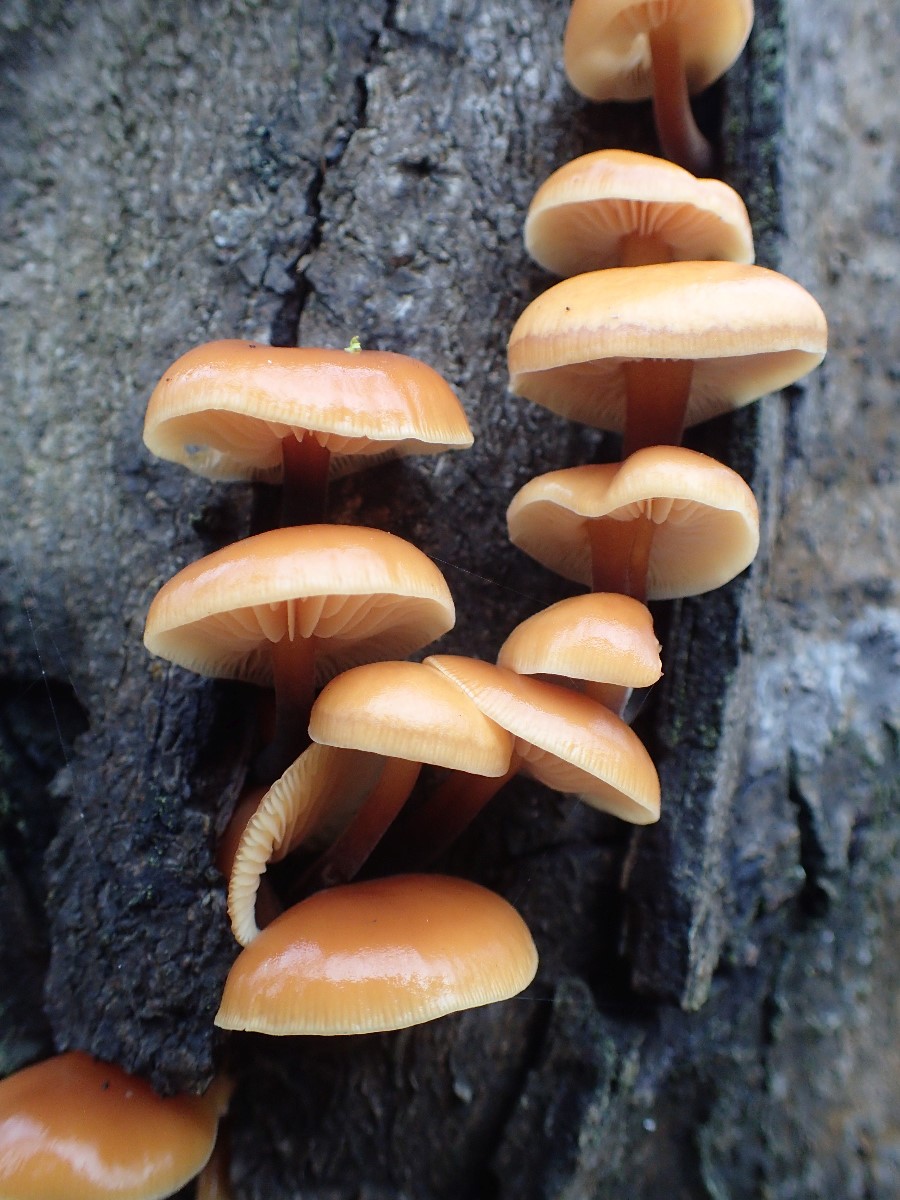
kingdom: Fungi
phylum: Basidiomycota
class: Agaricomycetes
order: Agaricales
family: Physalacriaceae
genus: Flammulina
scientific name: Flammulina velutipes
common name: gul fløjlsfod
